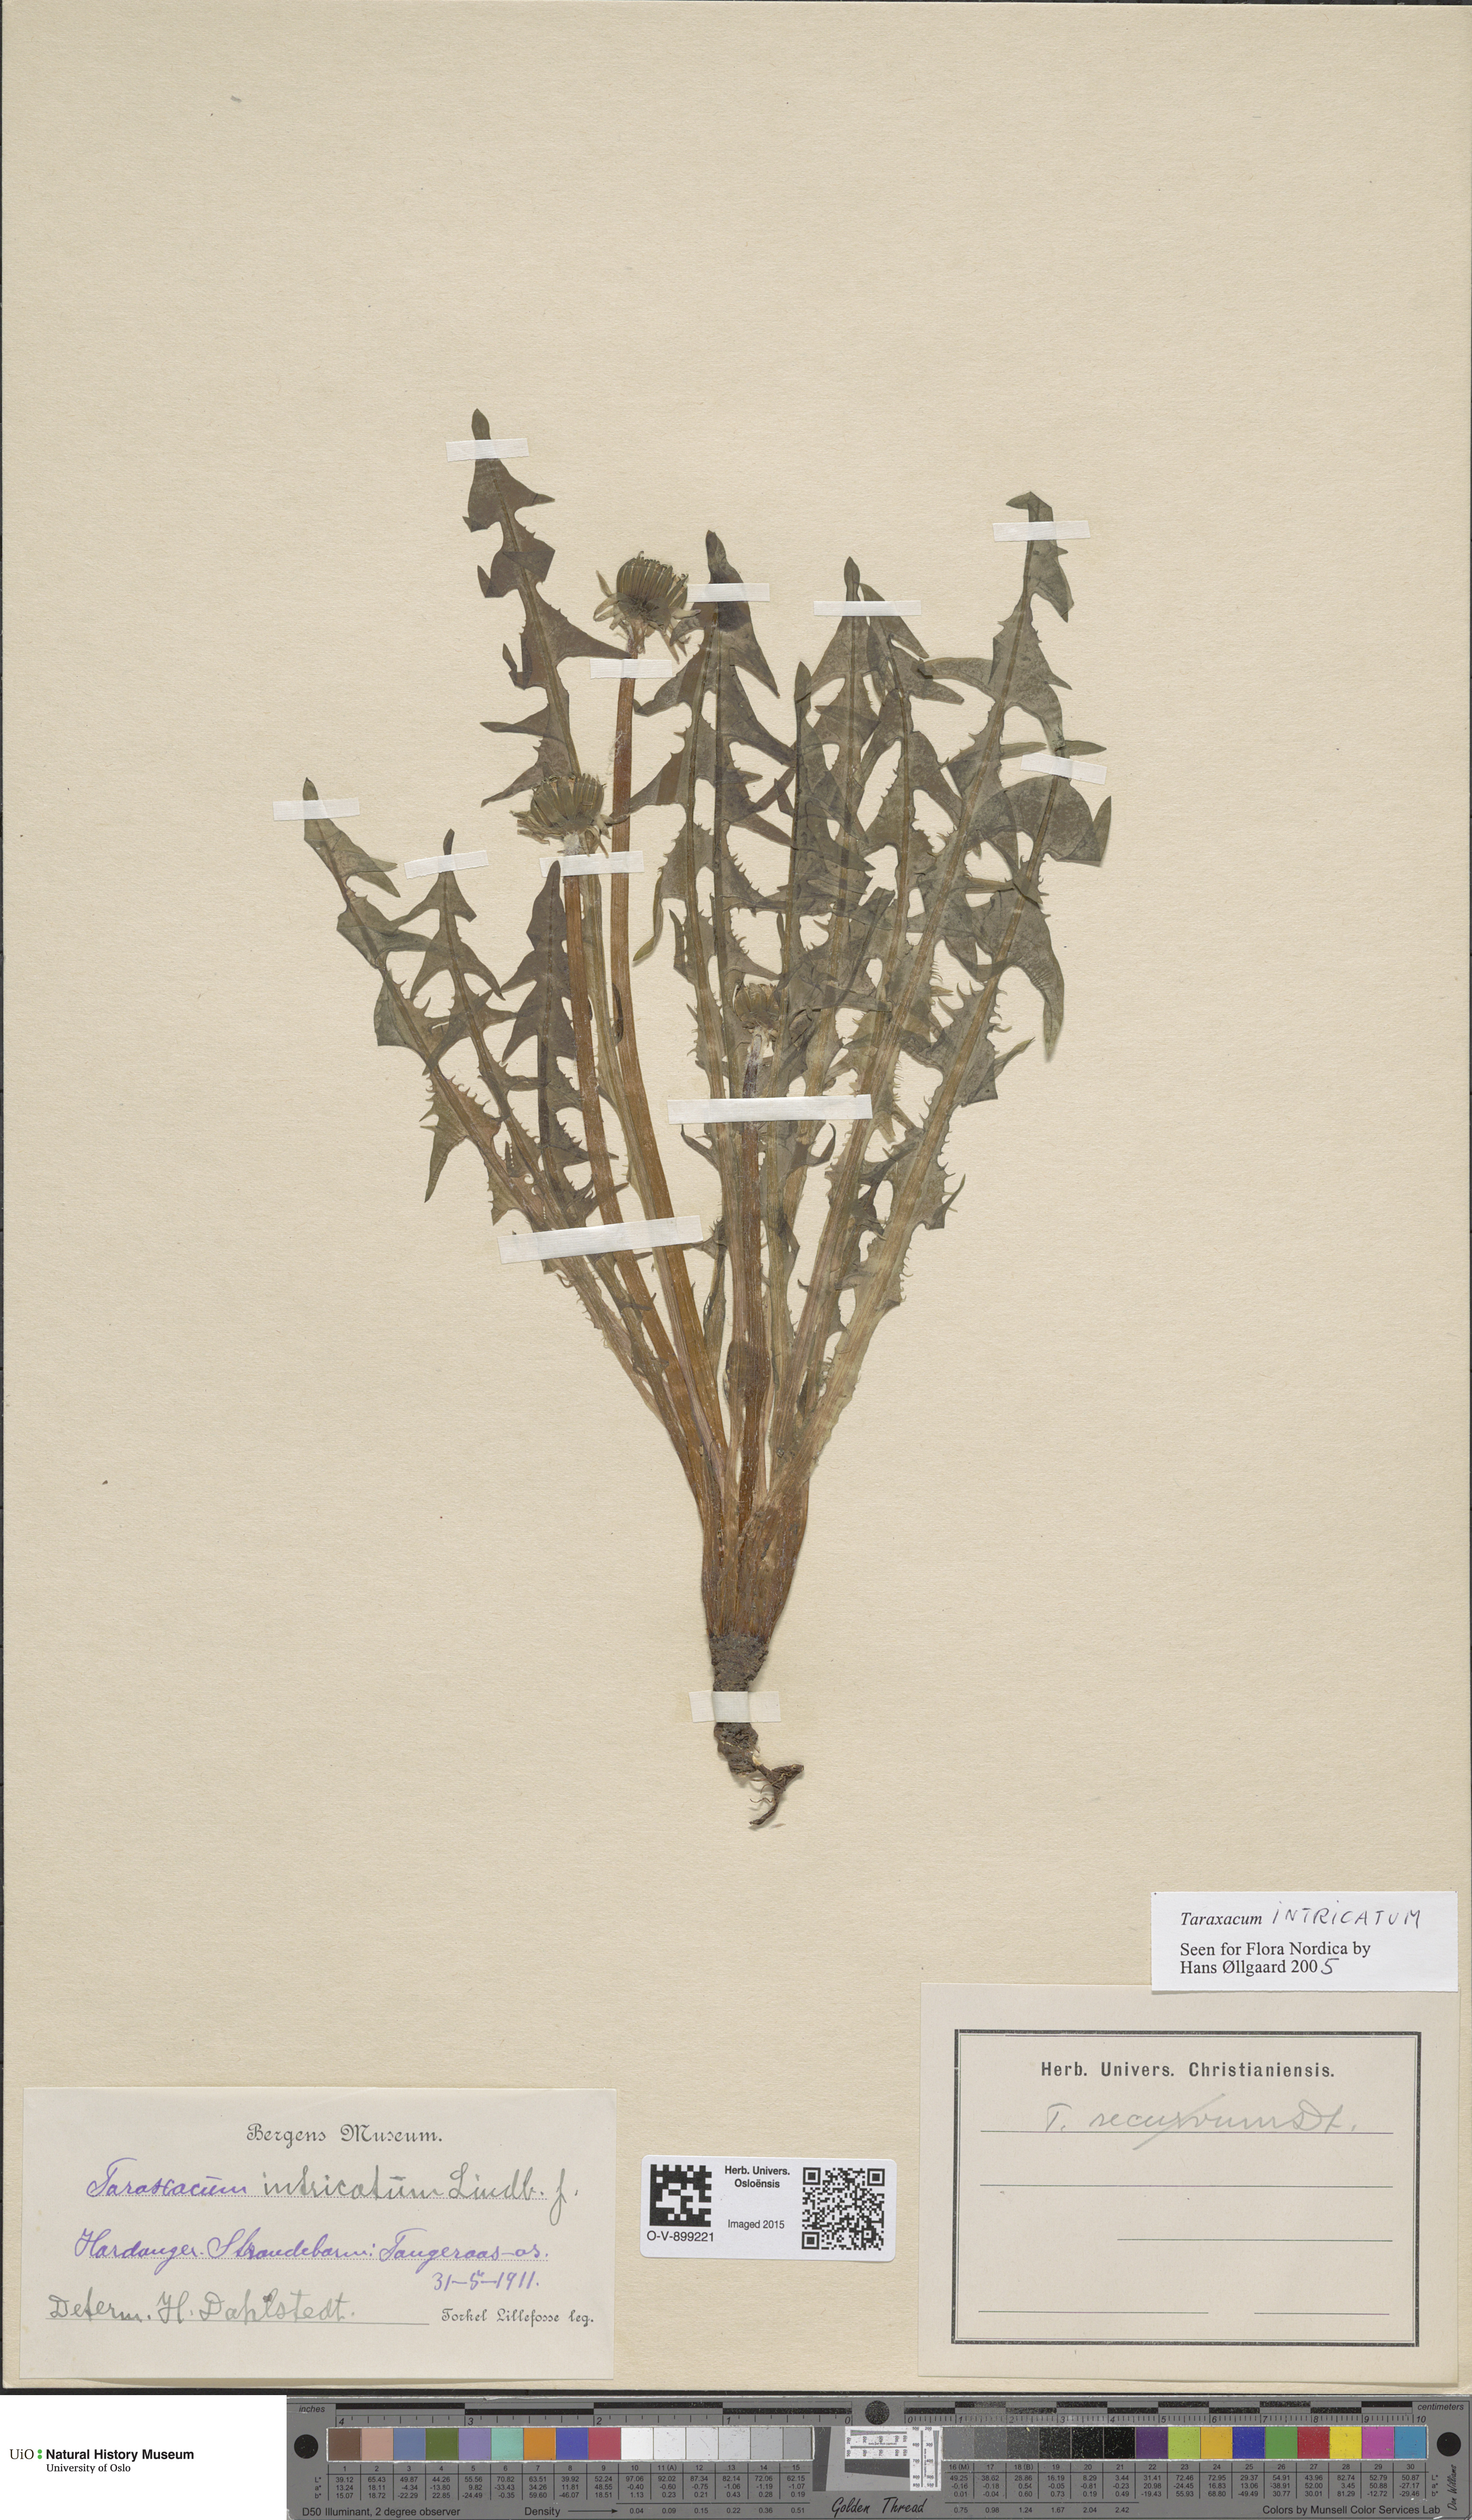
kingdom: Plantae
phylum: Tracheophyta
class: Magnoliopsida
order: Asterales
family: Asteraceae
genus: Taraxacum
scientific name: Taraxacum recurvum
